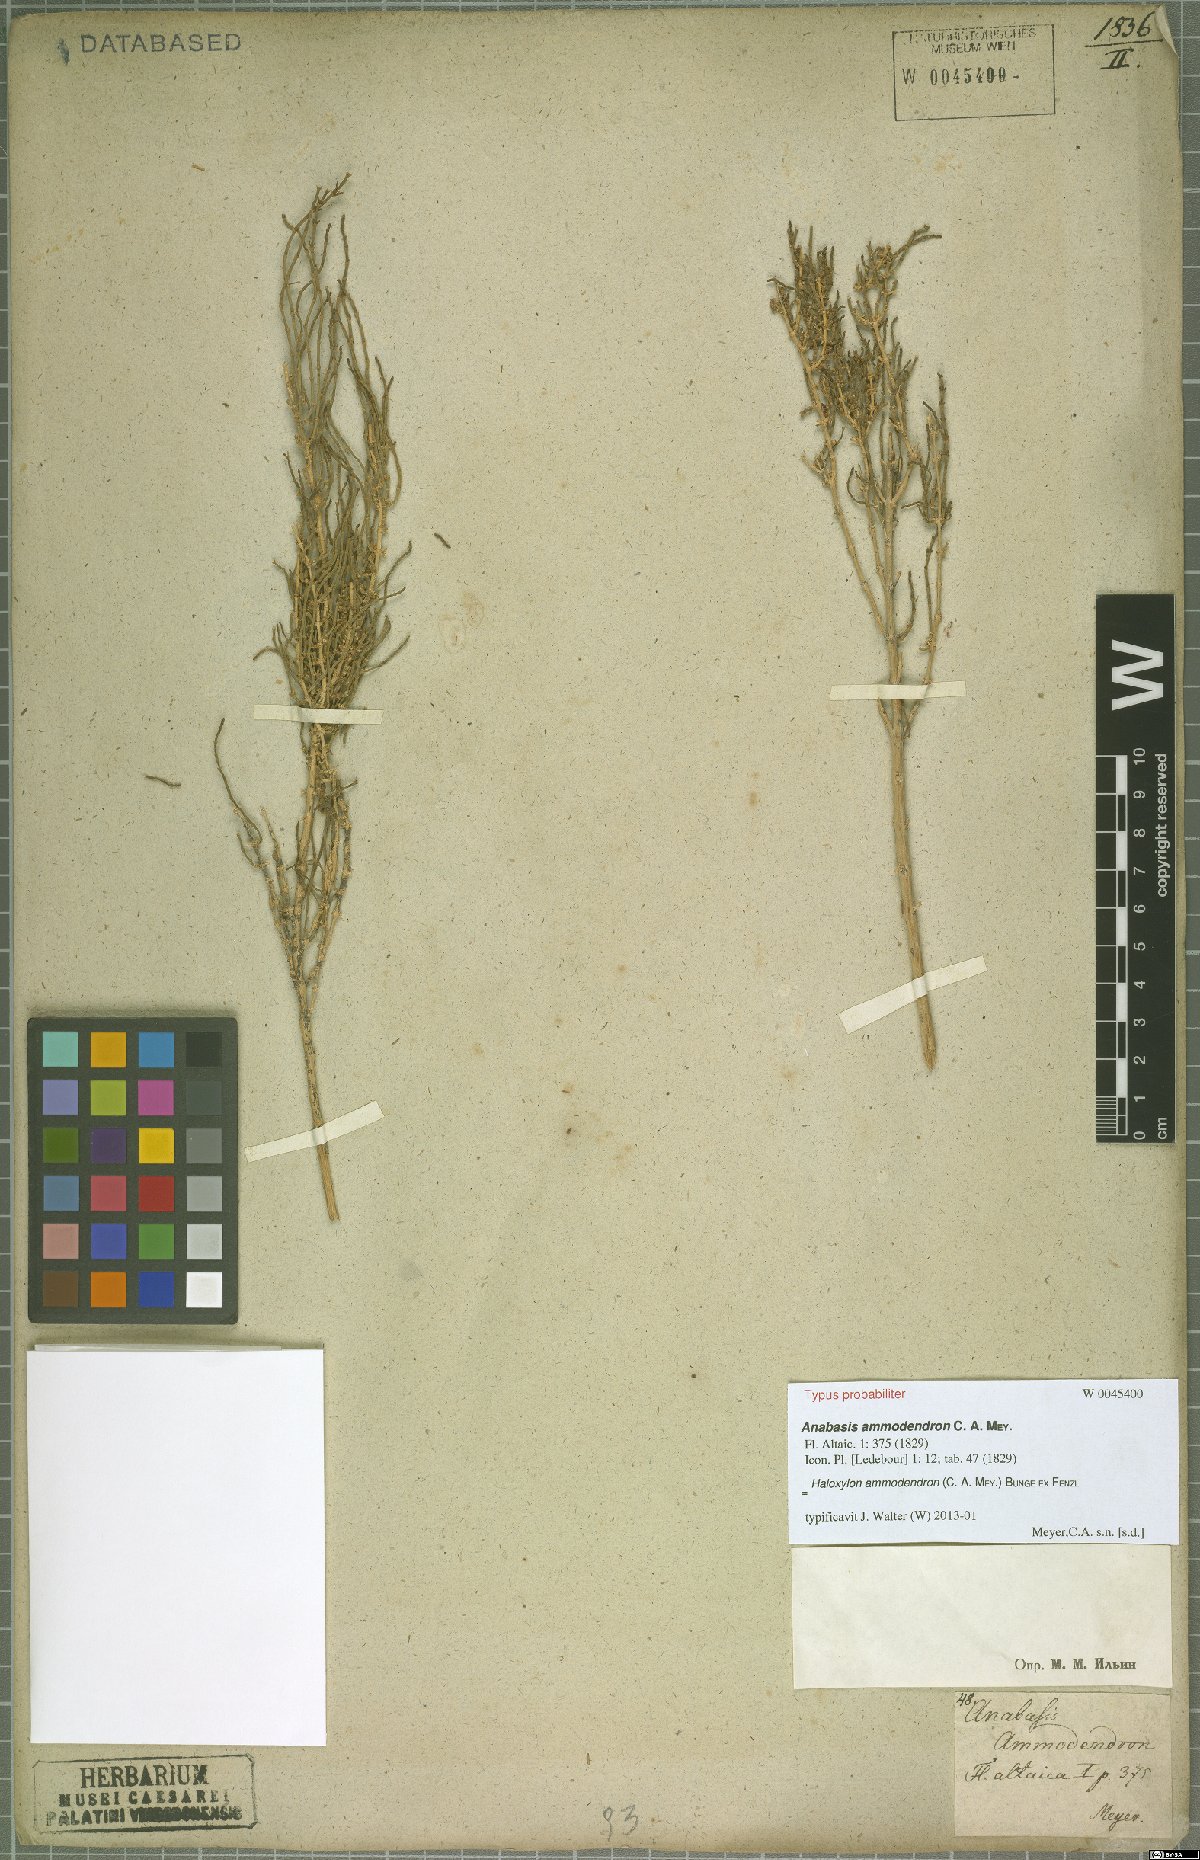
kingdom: Plantae
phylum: Tracheophyta
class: Magnoliopsida
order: Caryophyllales
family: Amaranthaceae
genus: Haloxylon
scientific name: Haloxylon ammodendron
